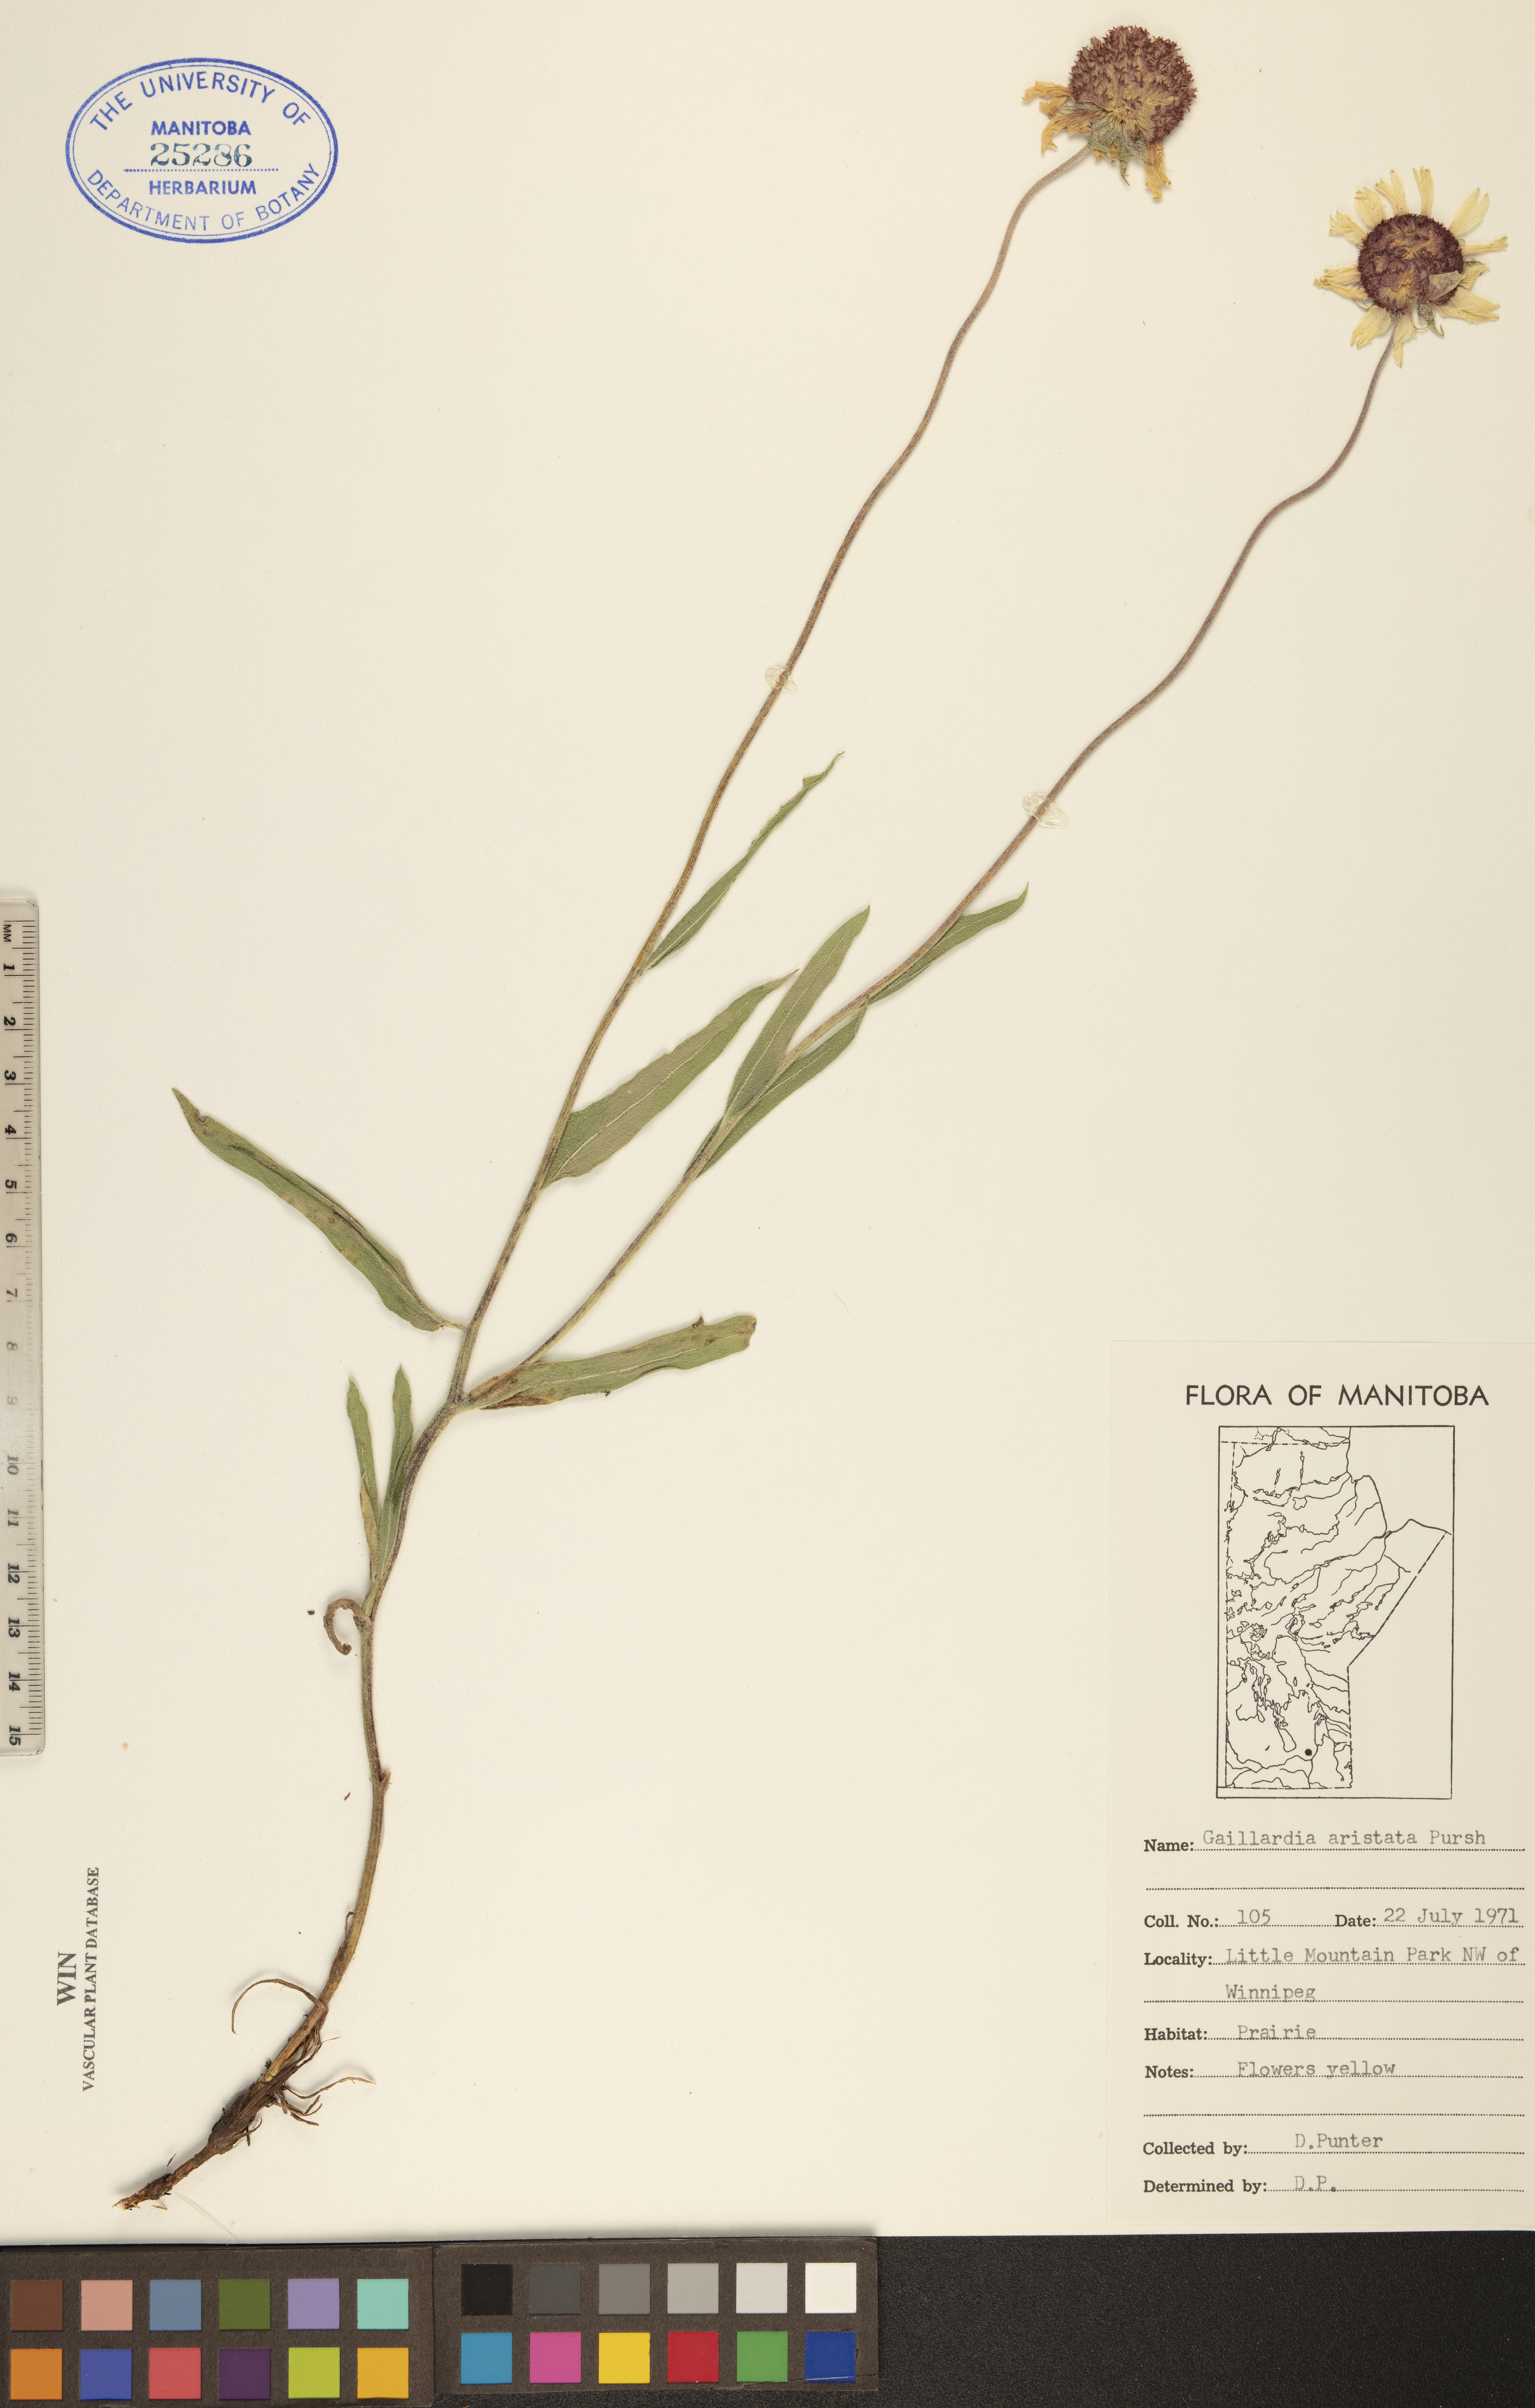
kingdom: Plantae
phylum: Tracheophyta
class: Magnoliopsida
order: Asterales
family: Asteraceae
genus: Gaillardia
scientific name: Gaillardia aristata
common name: Blanket-flower
